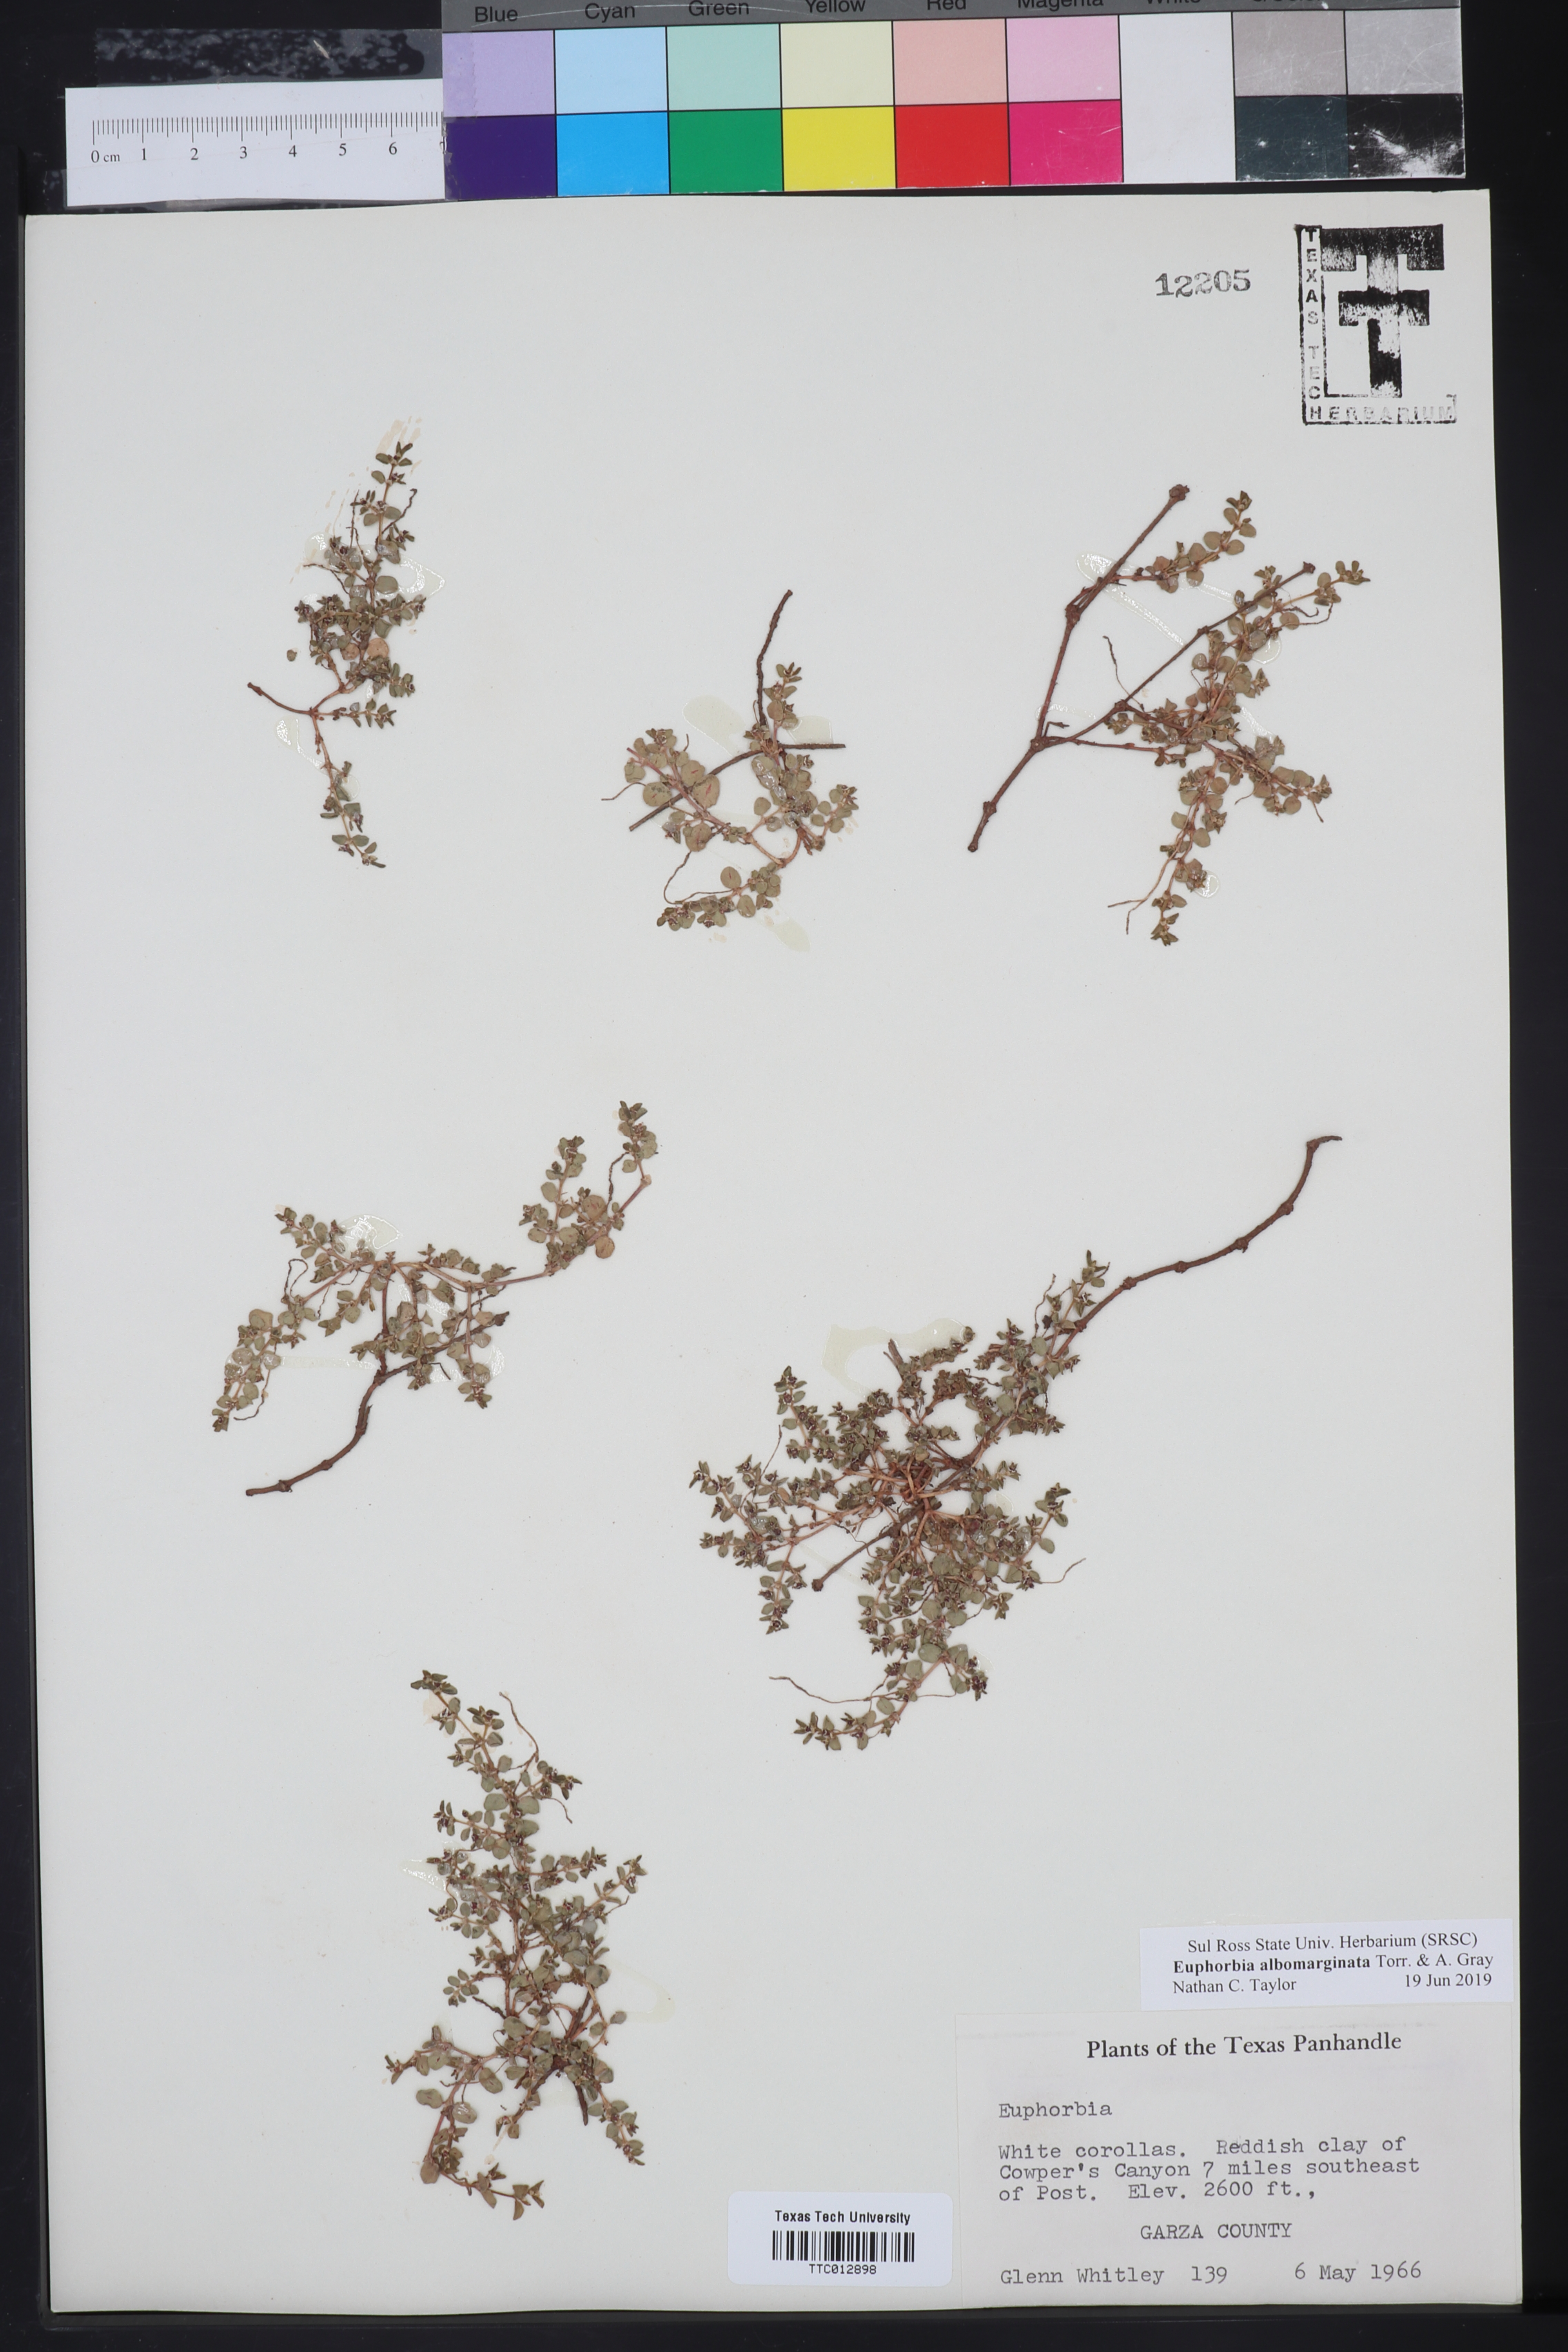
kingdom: Plantae
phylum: Tracheophyta
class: Magnoliopsida
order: Malpighiales
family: Euphorbiaceae
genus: Euphorbia
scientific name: Euphorbia albomarginata
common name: Whitemargin sandmat
